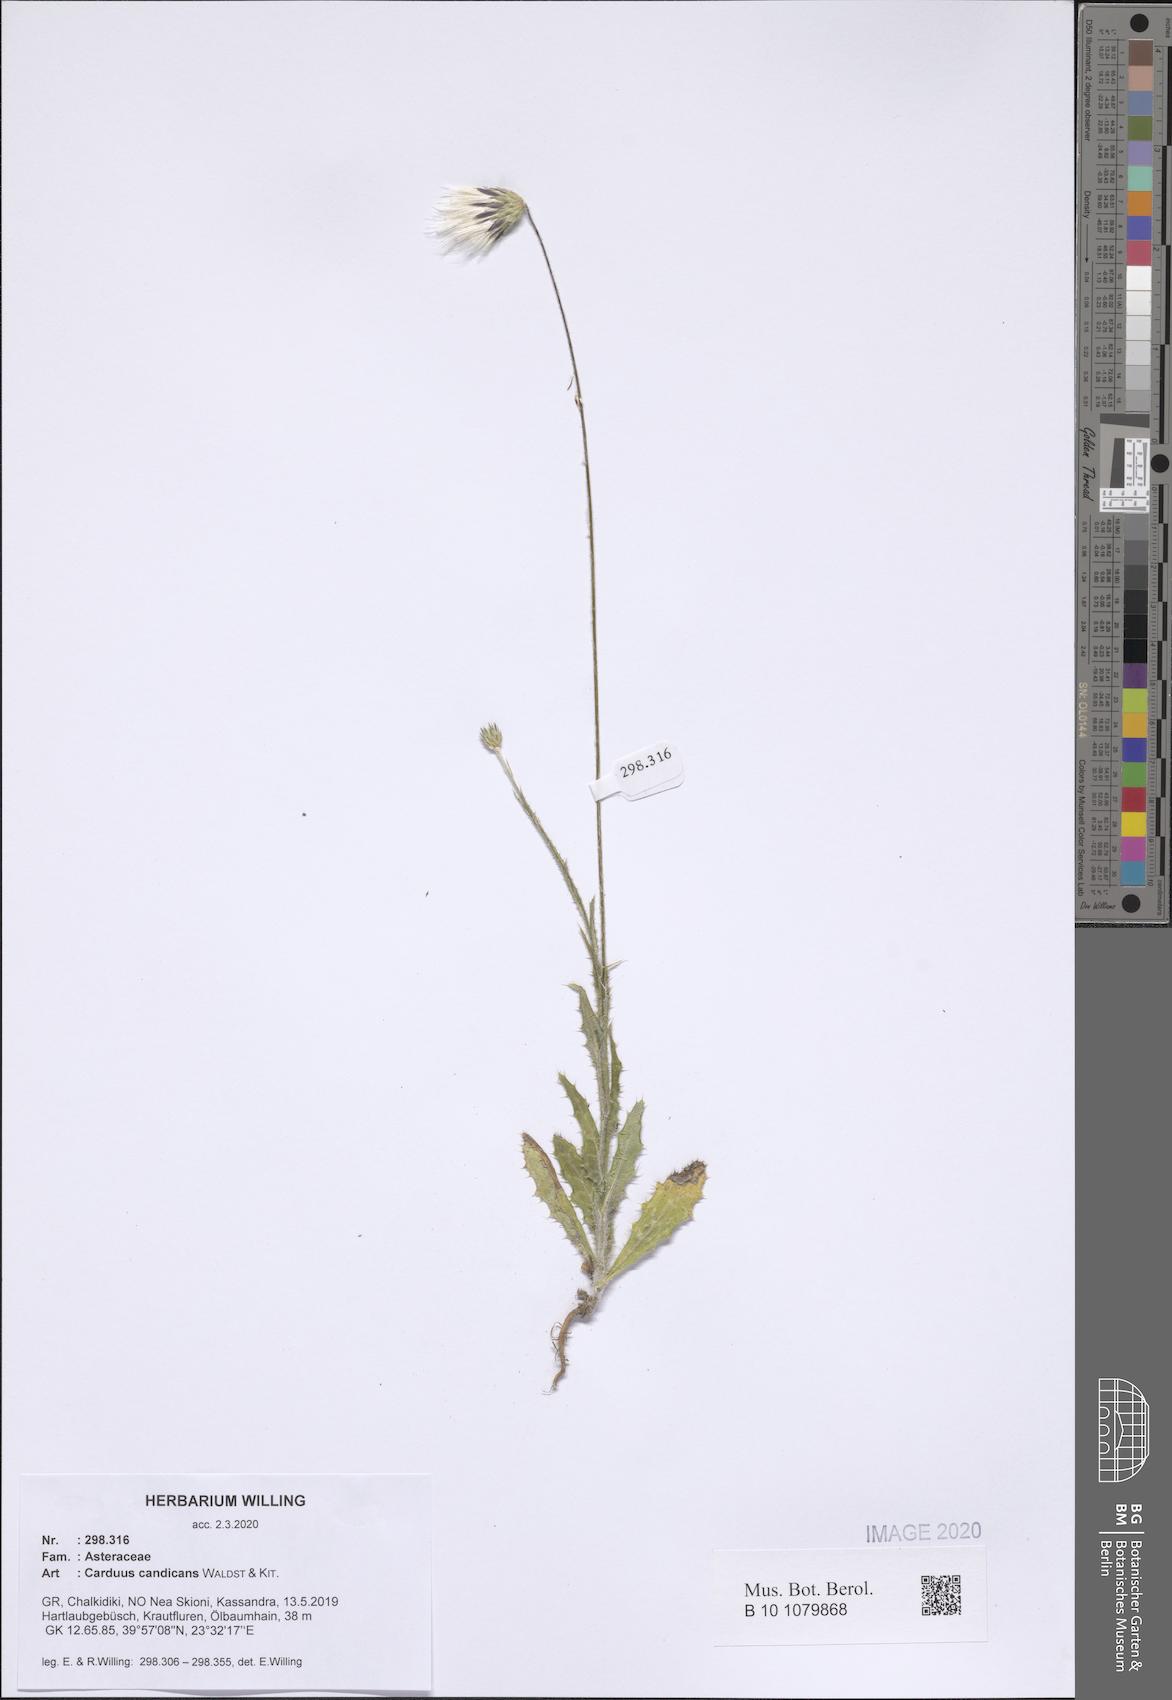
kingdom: Plantae
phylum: Tracheophyta
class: Magnoliopsida
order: Asterales
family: Asteraceae
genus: Carduus
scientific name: Carduus candicans
